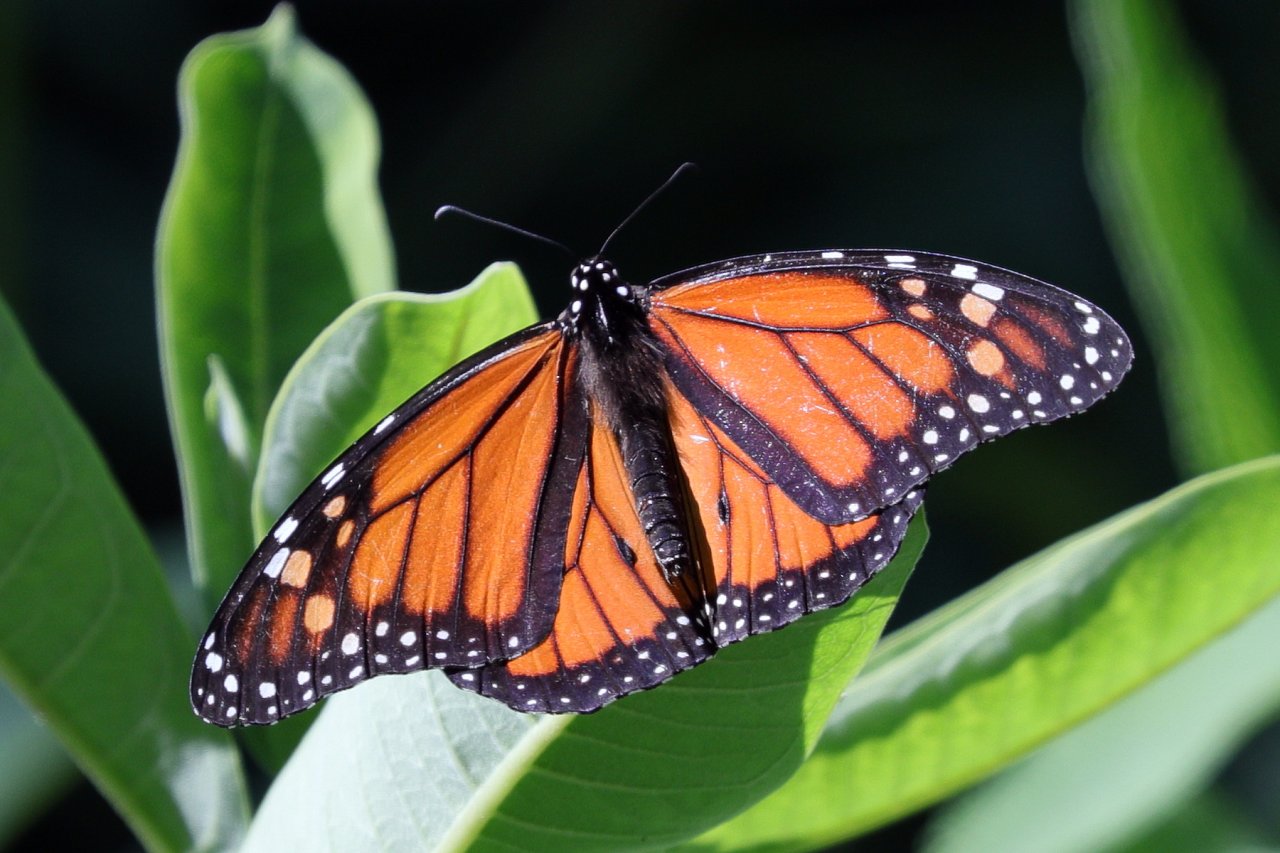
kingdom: Animalia
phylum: Arthropoda
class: Insecta
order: Lepidoptera
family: Nymphalidae
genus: Danaus
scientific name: Danaus plexippus
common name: Monarch
